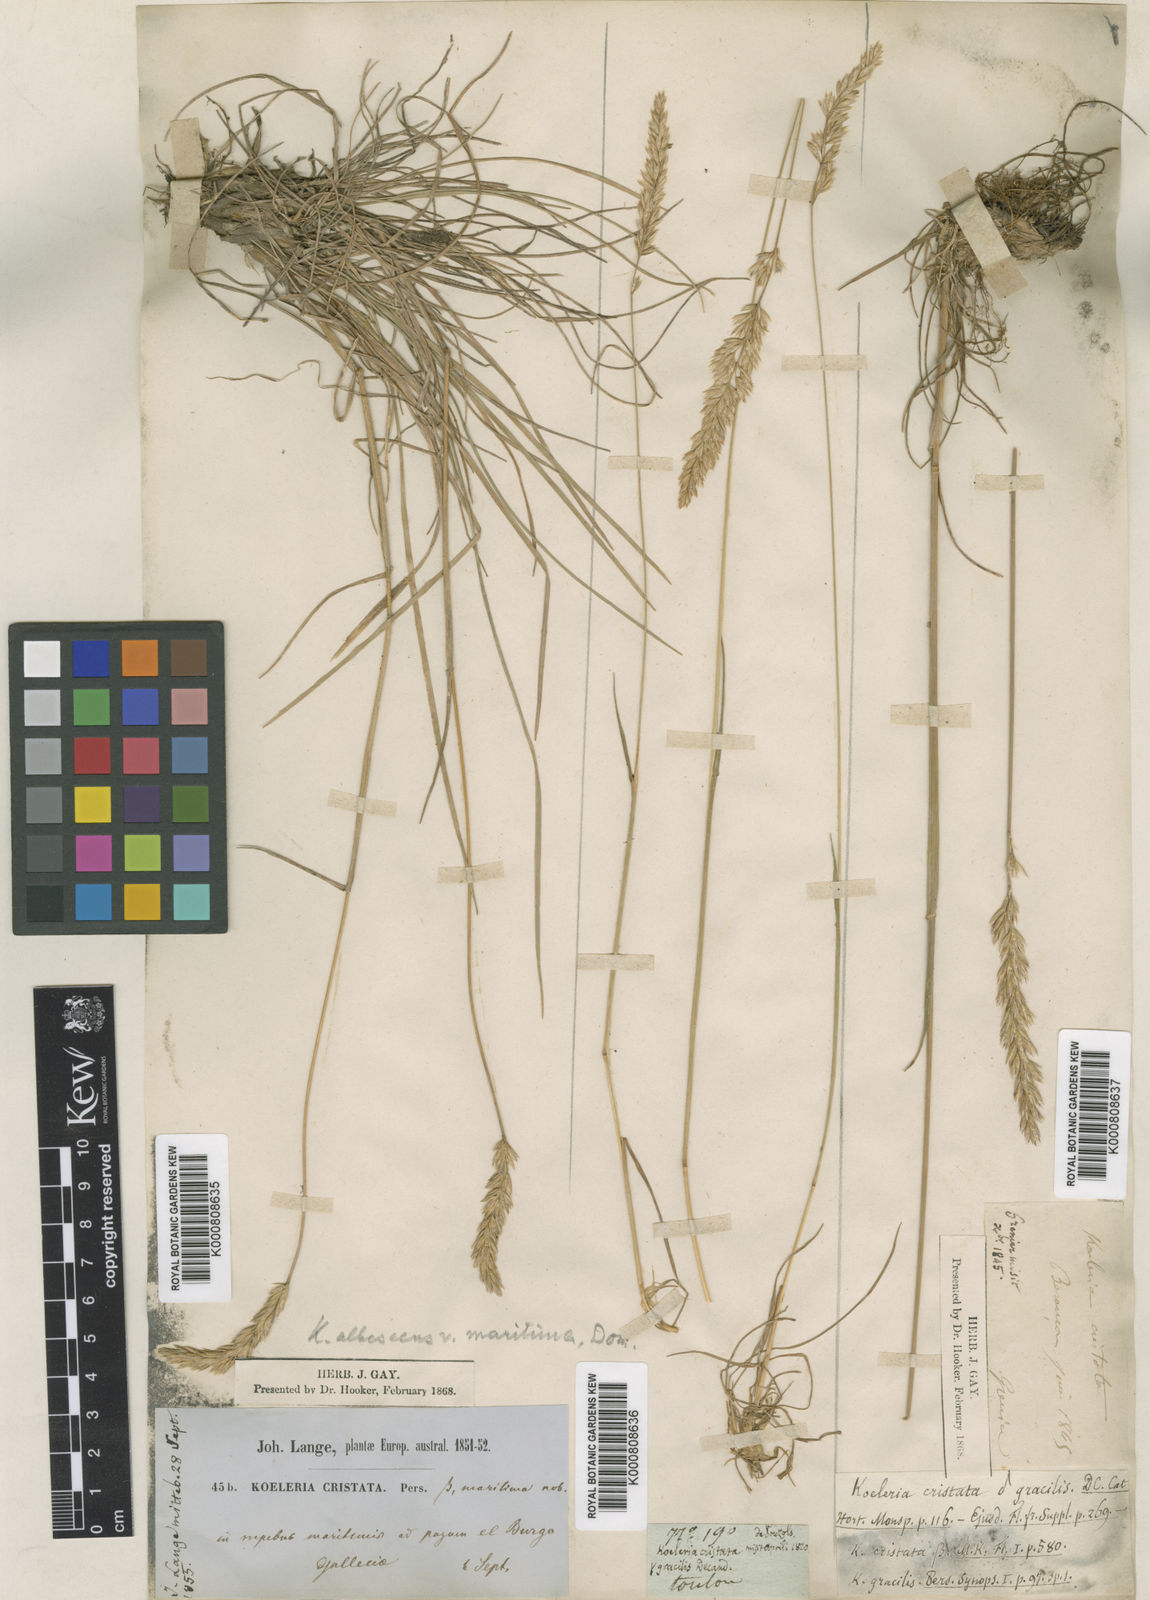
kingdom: Plantae
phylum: Tracheophyta
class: Liliopsida
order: Poales
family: Poaceae
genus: Koeleria
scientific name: Koeleria macrantha
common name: Crested hair-grass
